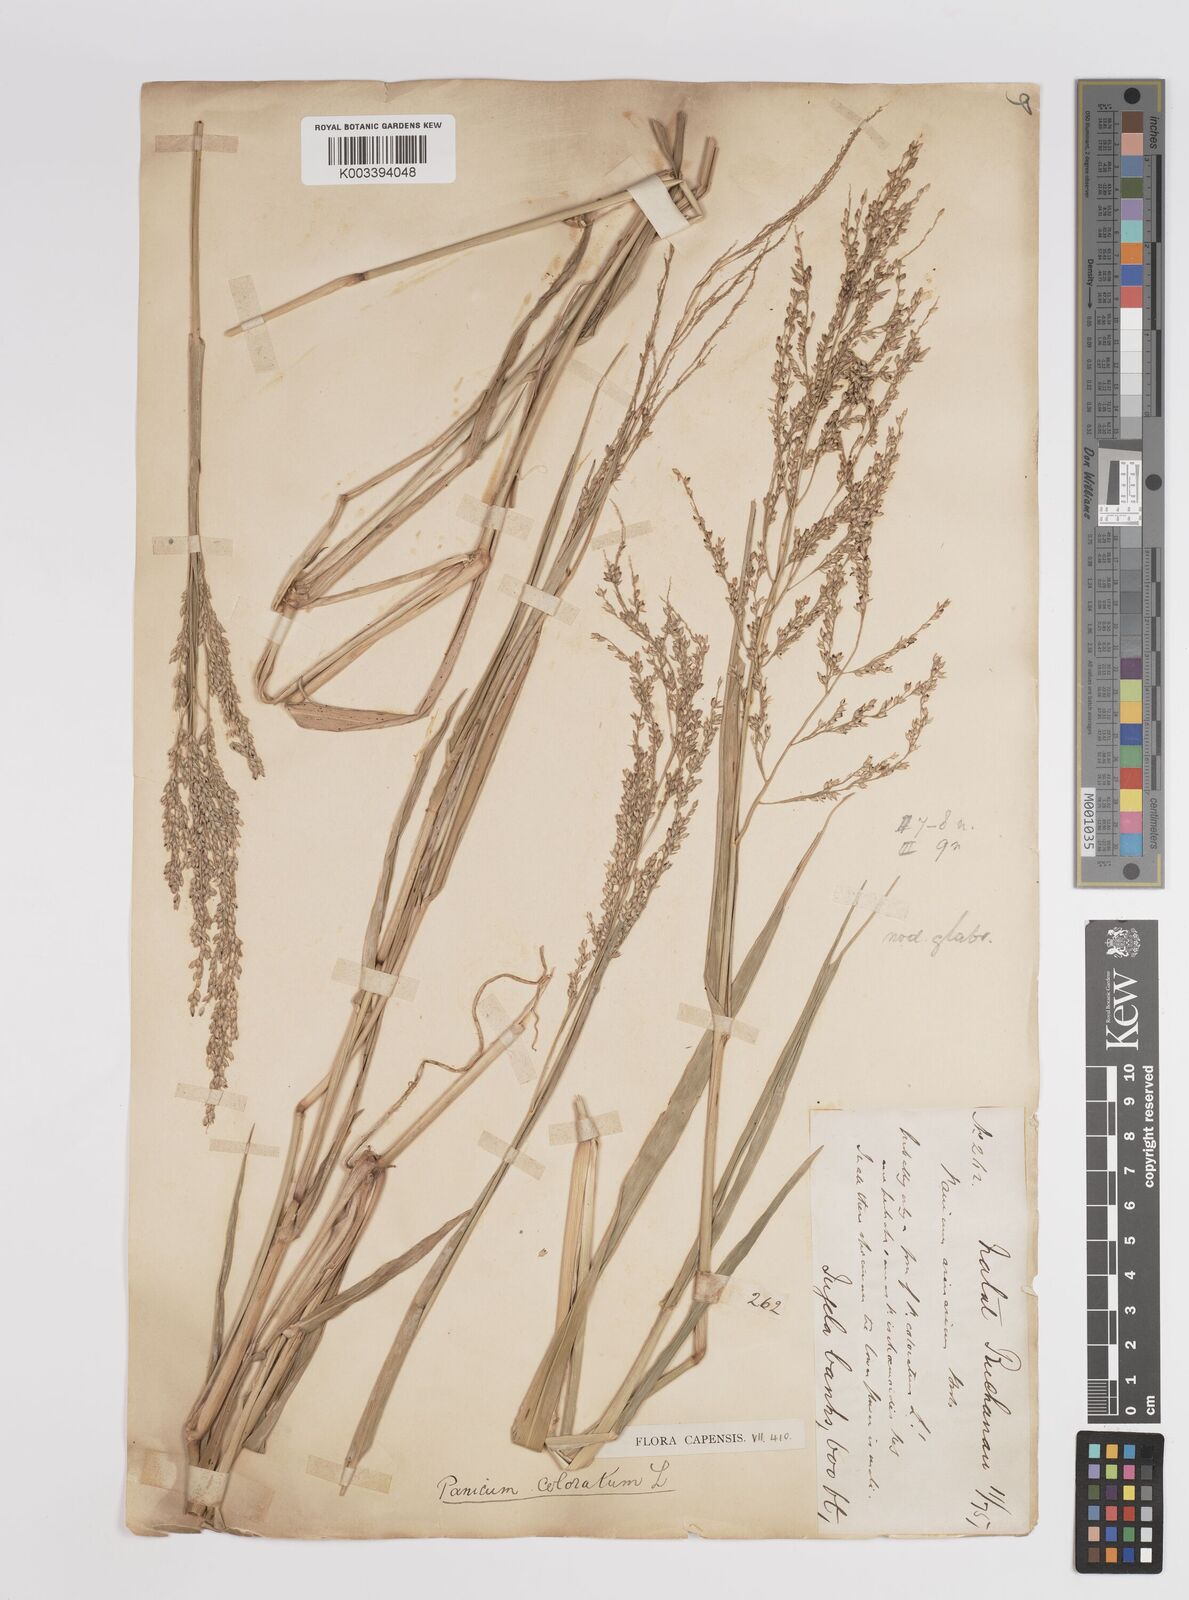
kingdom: Plantae
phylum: Tracheophyta
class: Liliopsida
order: Poales
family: Poaceae
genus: Panicum
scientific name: Panicum coloratum
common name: Kleingrass
